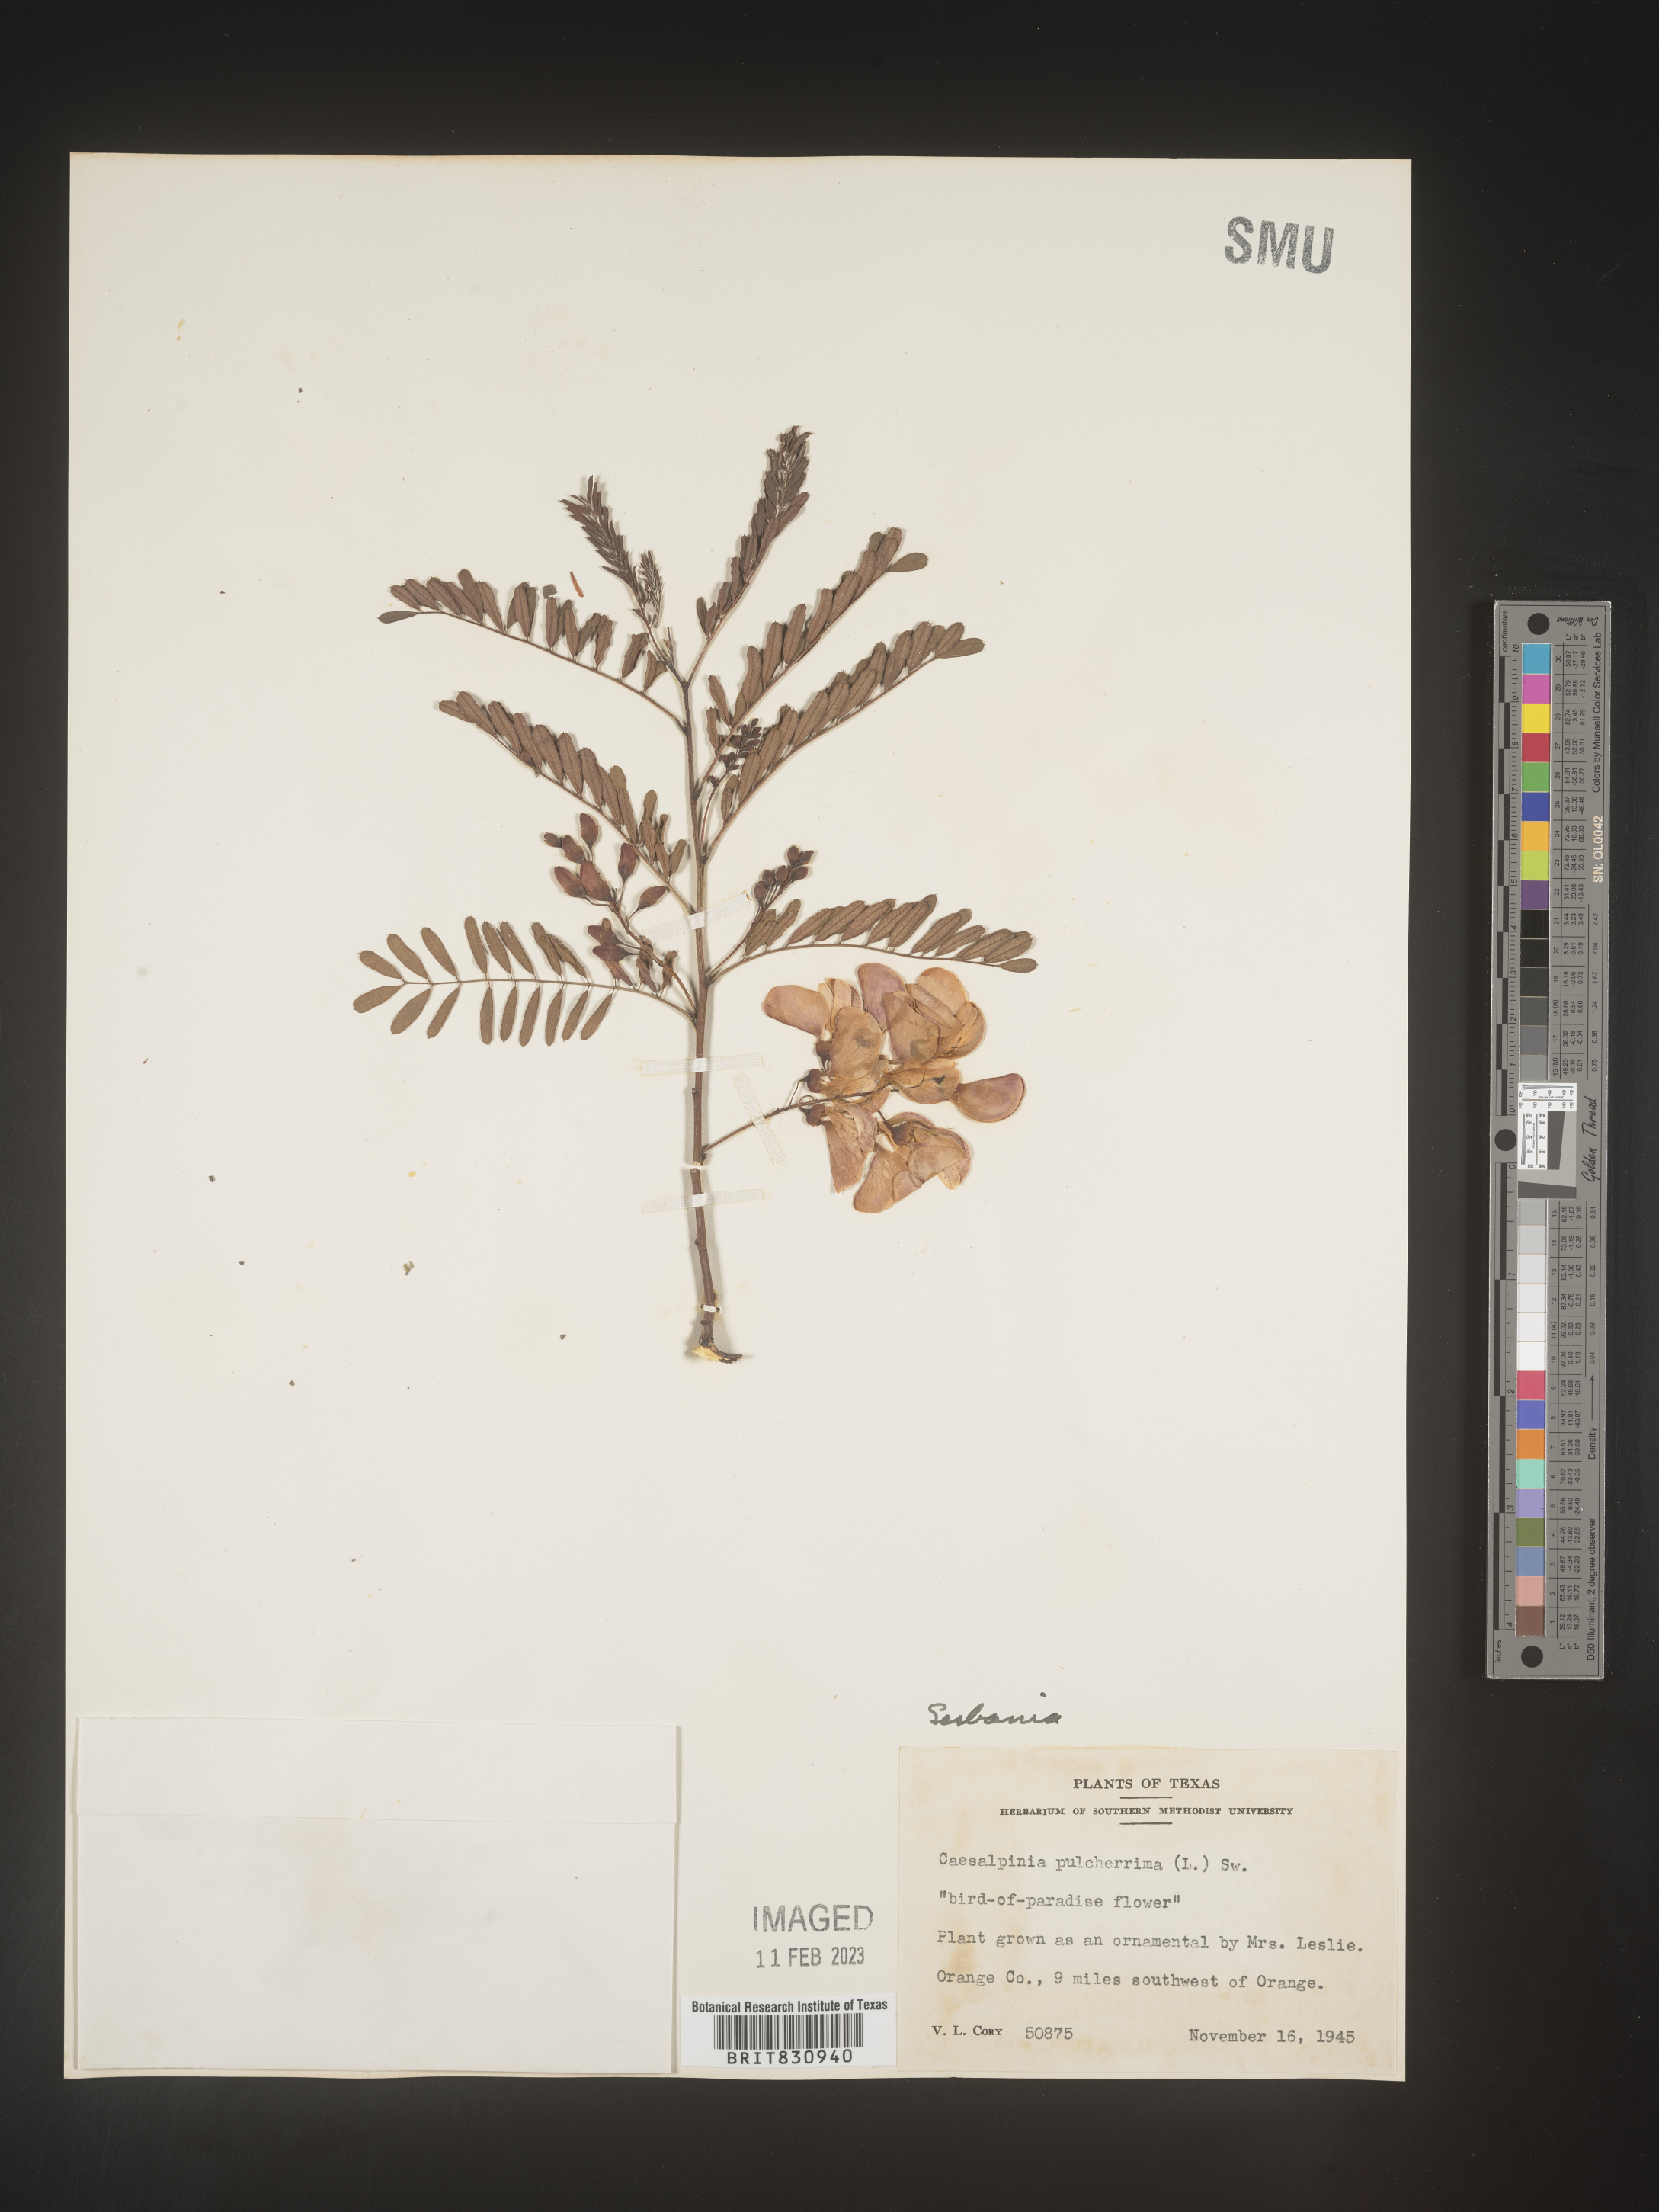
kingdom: Plantae
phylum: Tracheophyta
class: Magnoliopsida
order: Fabales
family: Fabaceae
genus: Sesbania
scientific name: Sesbania
